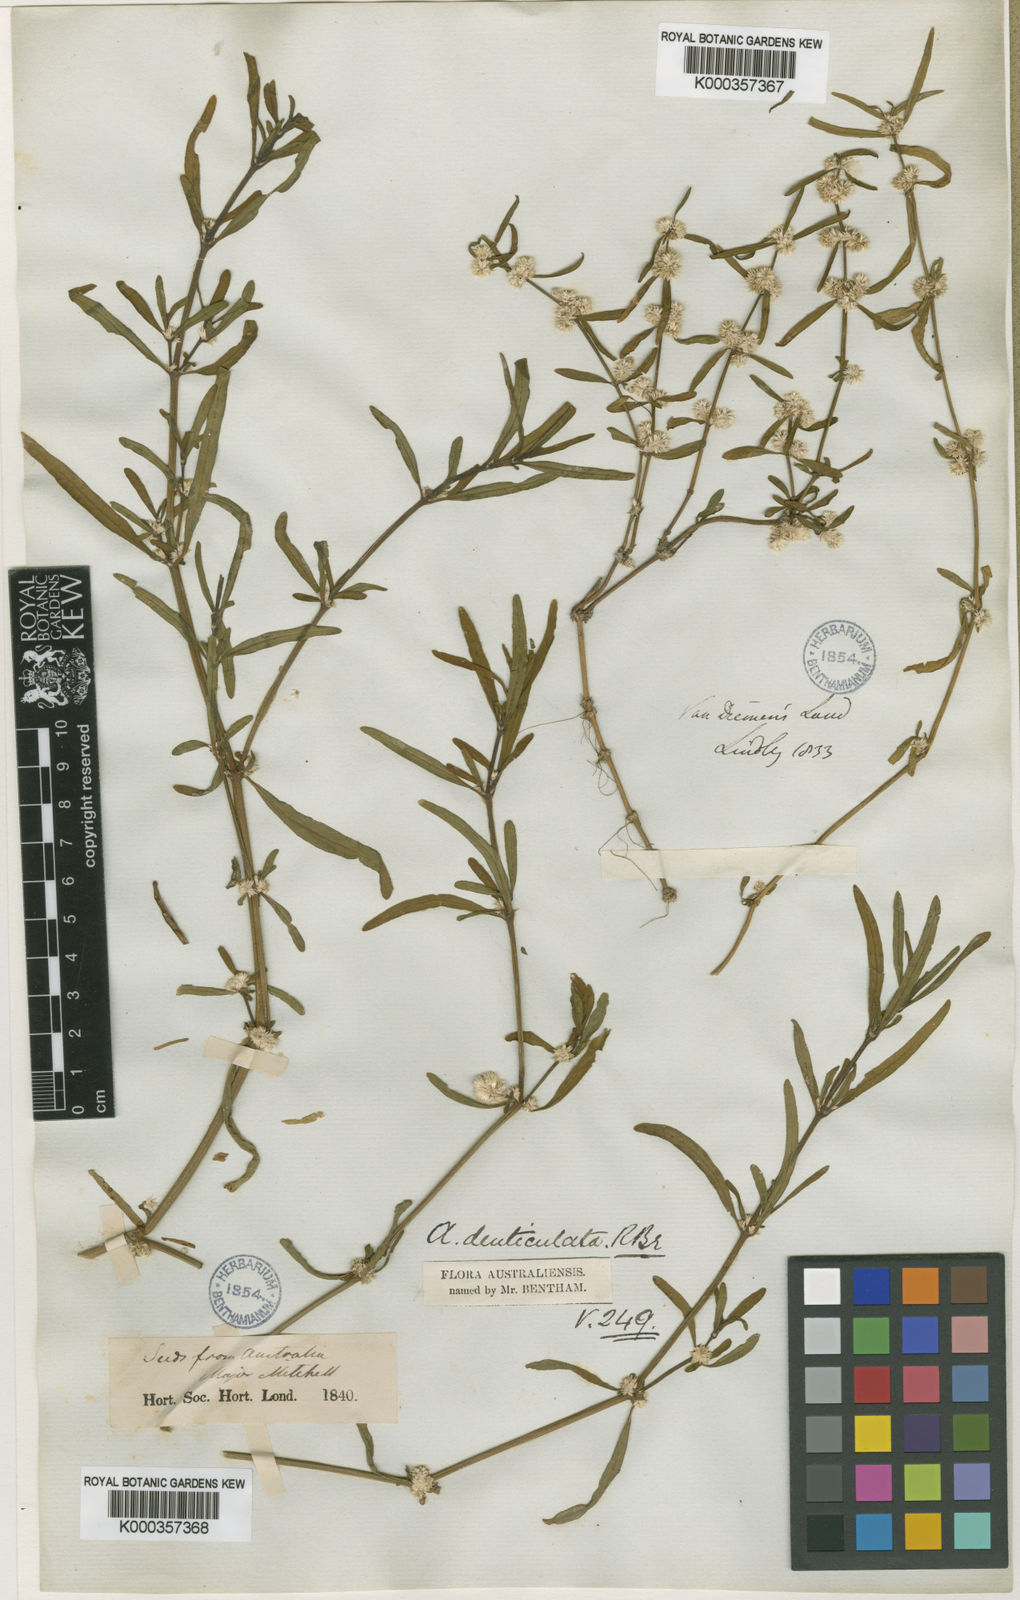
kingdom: Plantae
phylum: Tracheophyta
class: Magnoliopsida
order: Caryophyllales
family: Amaranthaceae
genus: Alternanthera
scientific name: Alternanthera denticulata
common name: Lesser joyweed
